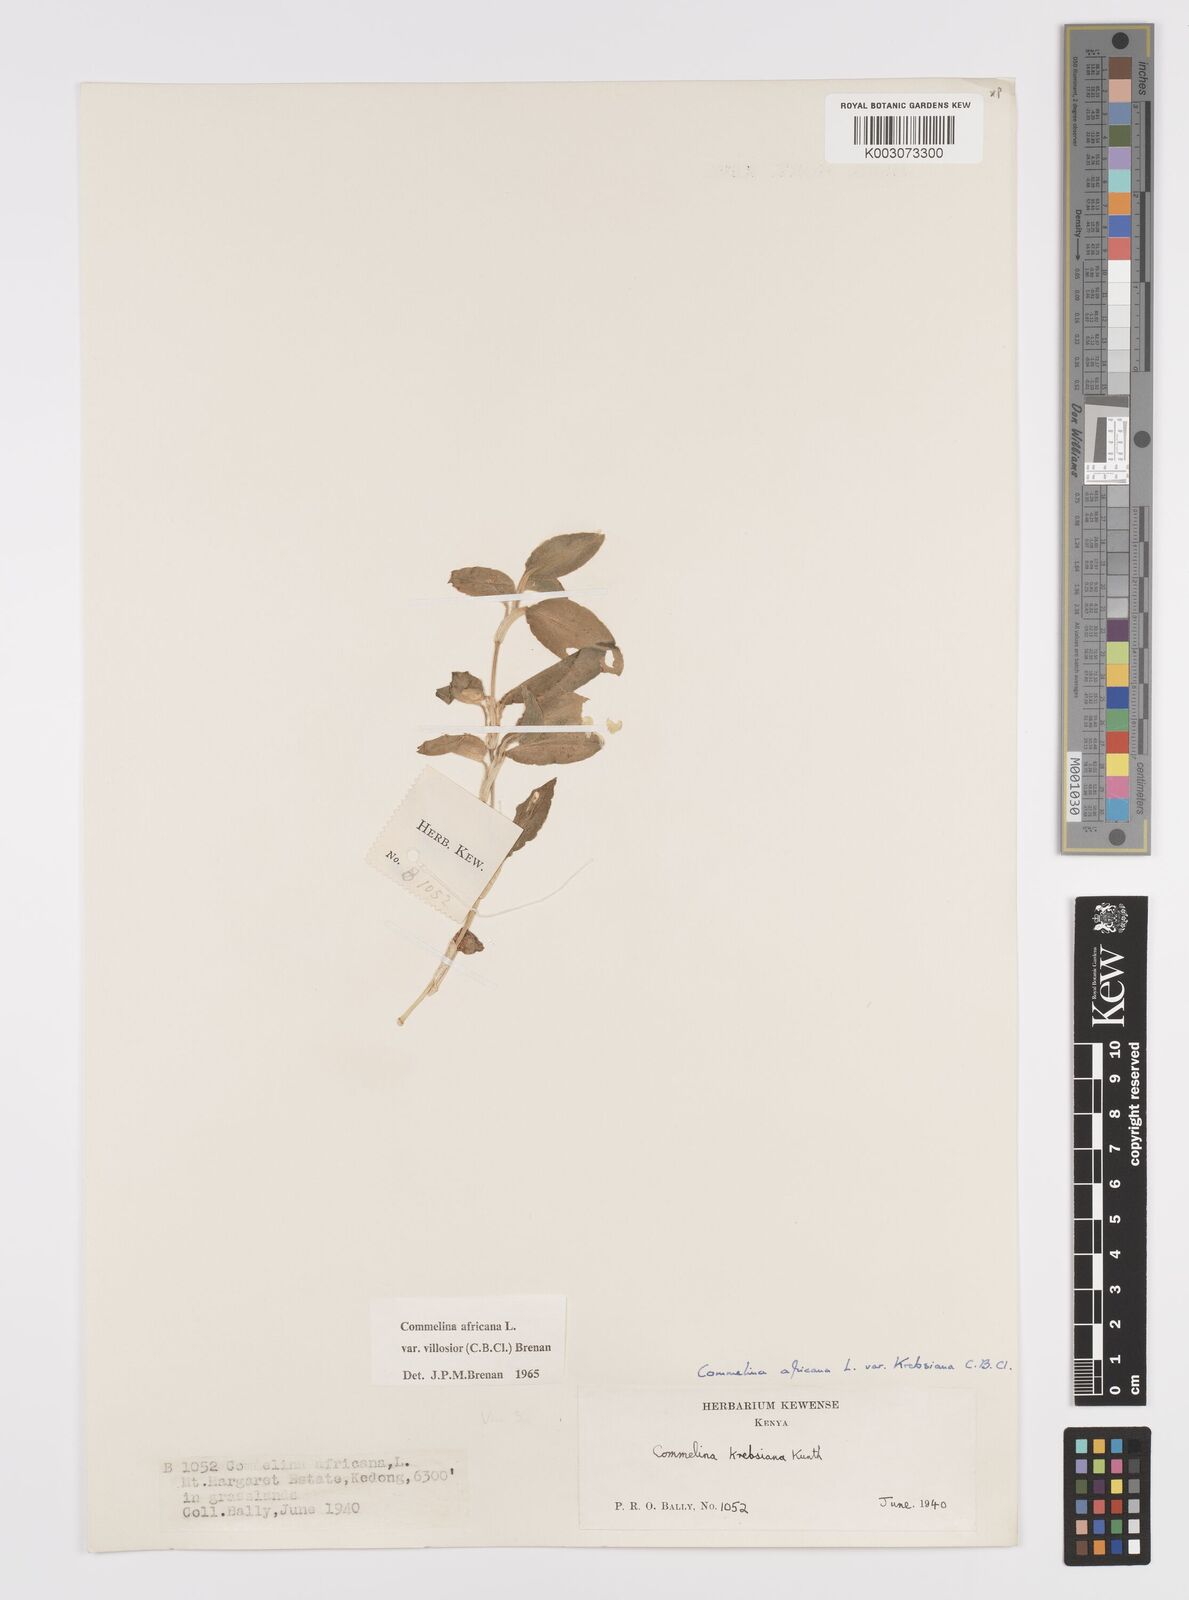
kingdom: Plantae
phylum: Tracheophyta
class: Liliopsida
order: Commelinales
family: Commelinaceae
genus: Commelina
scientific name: Commelina africana
